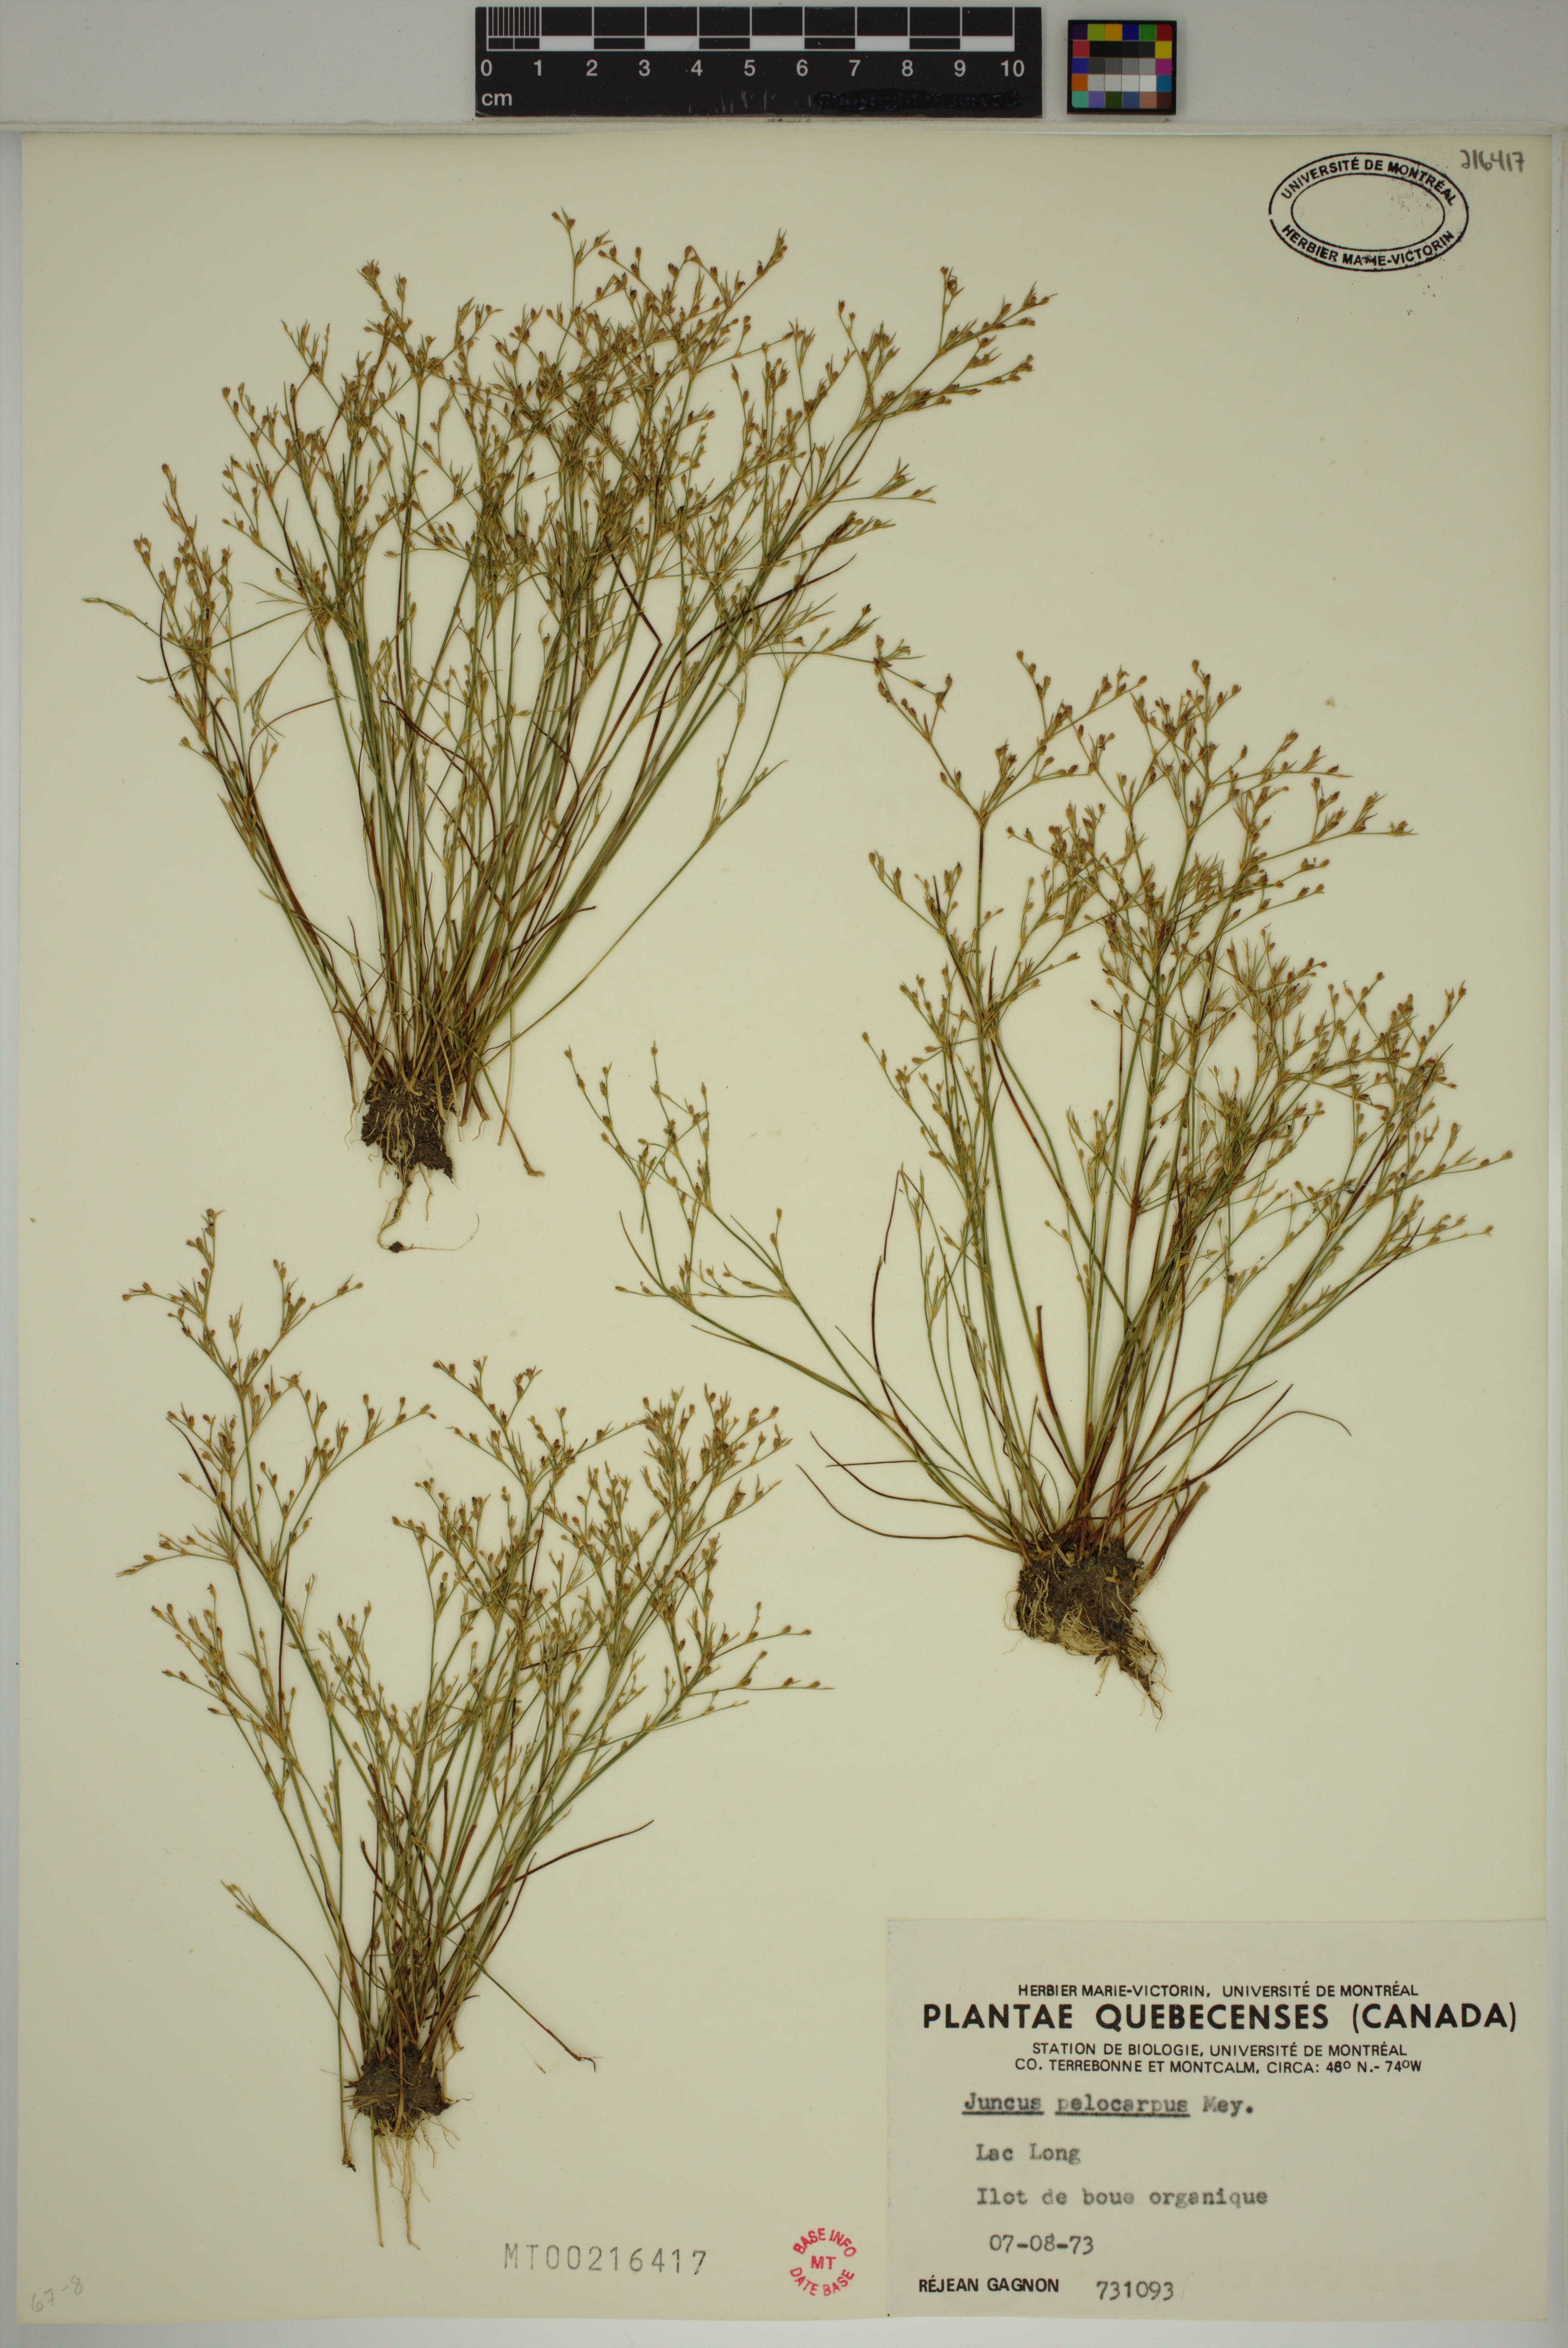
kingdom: Plantae
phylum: Tracheophyta
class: Liliopsida
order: Poales
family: Juncaceae
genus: Juncus
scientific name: Juncus pelocarpus
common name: Brown-fruited rush
